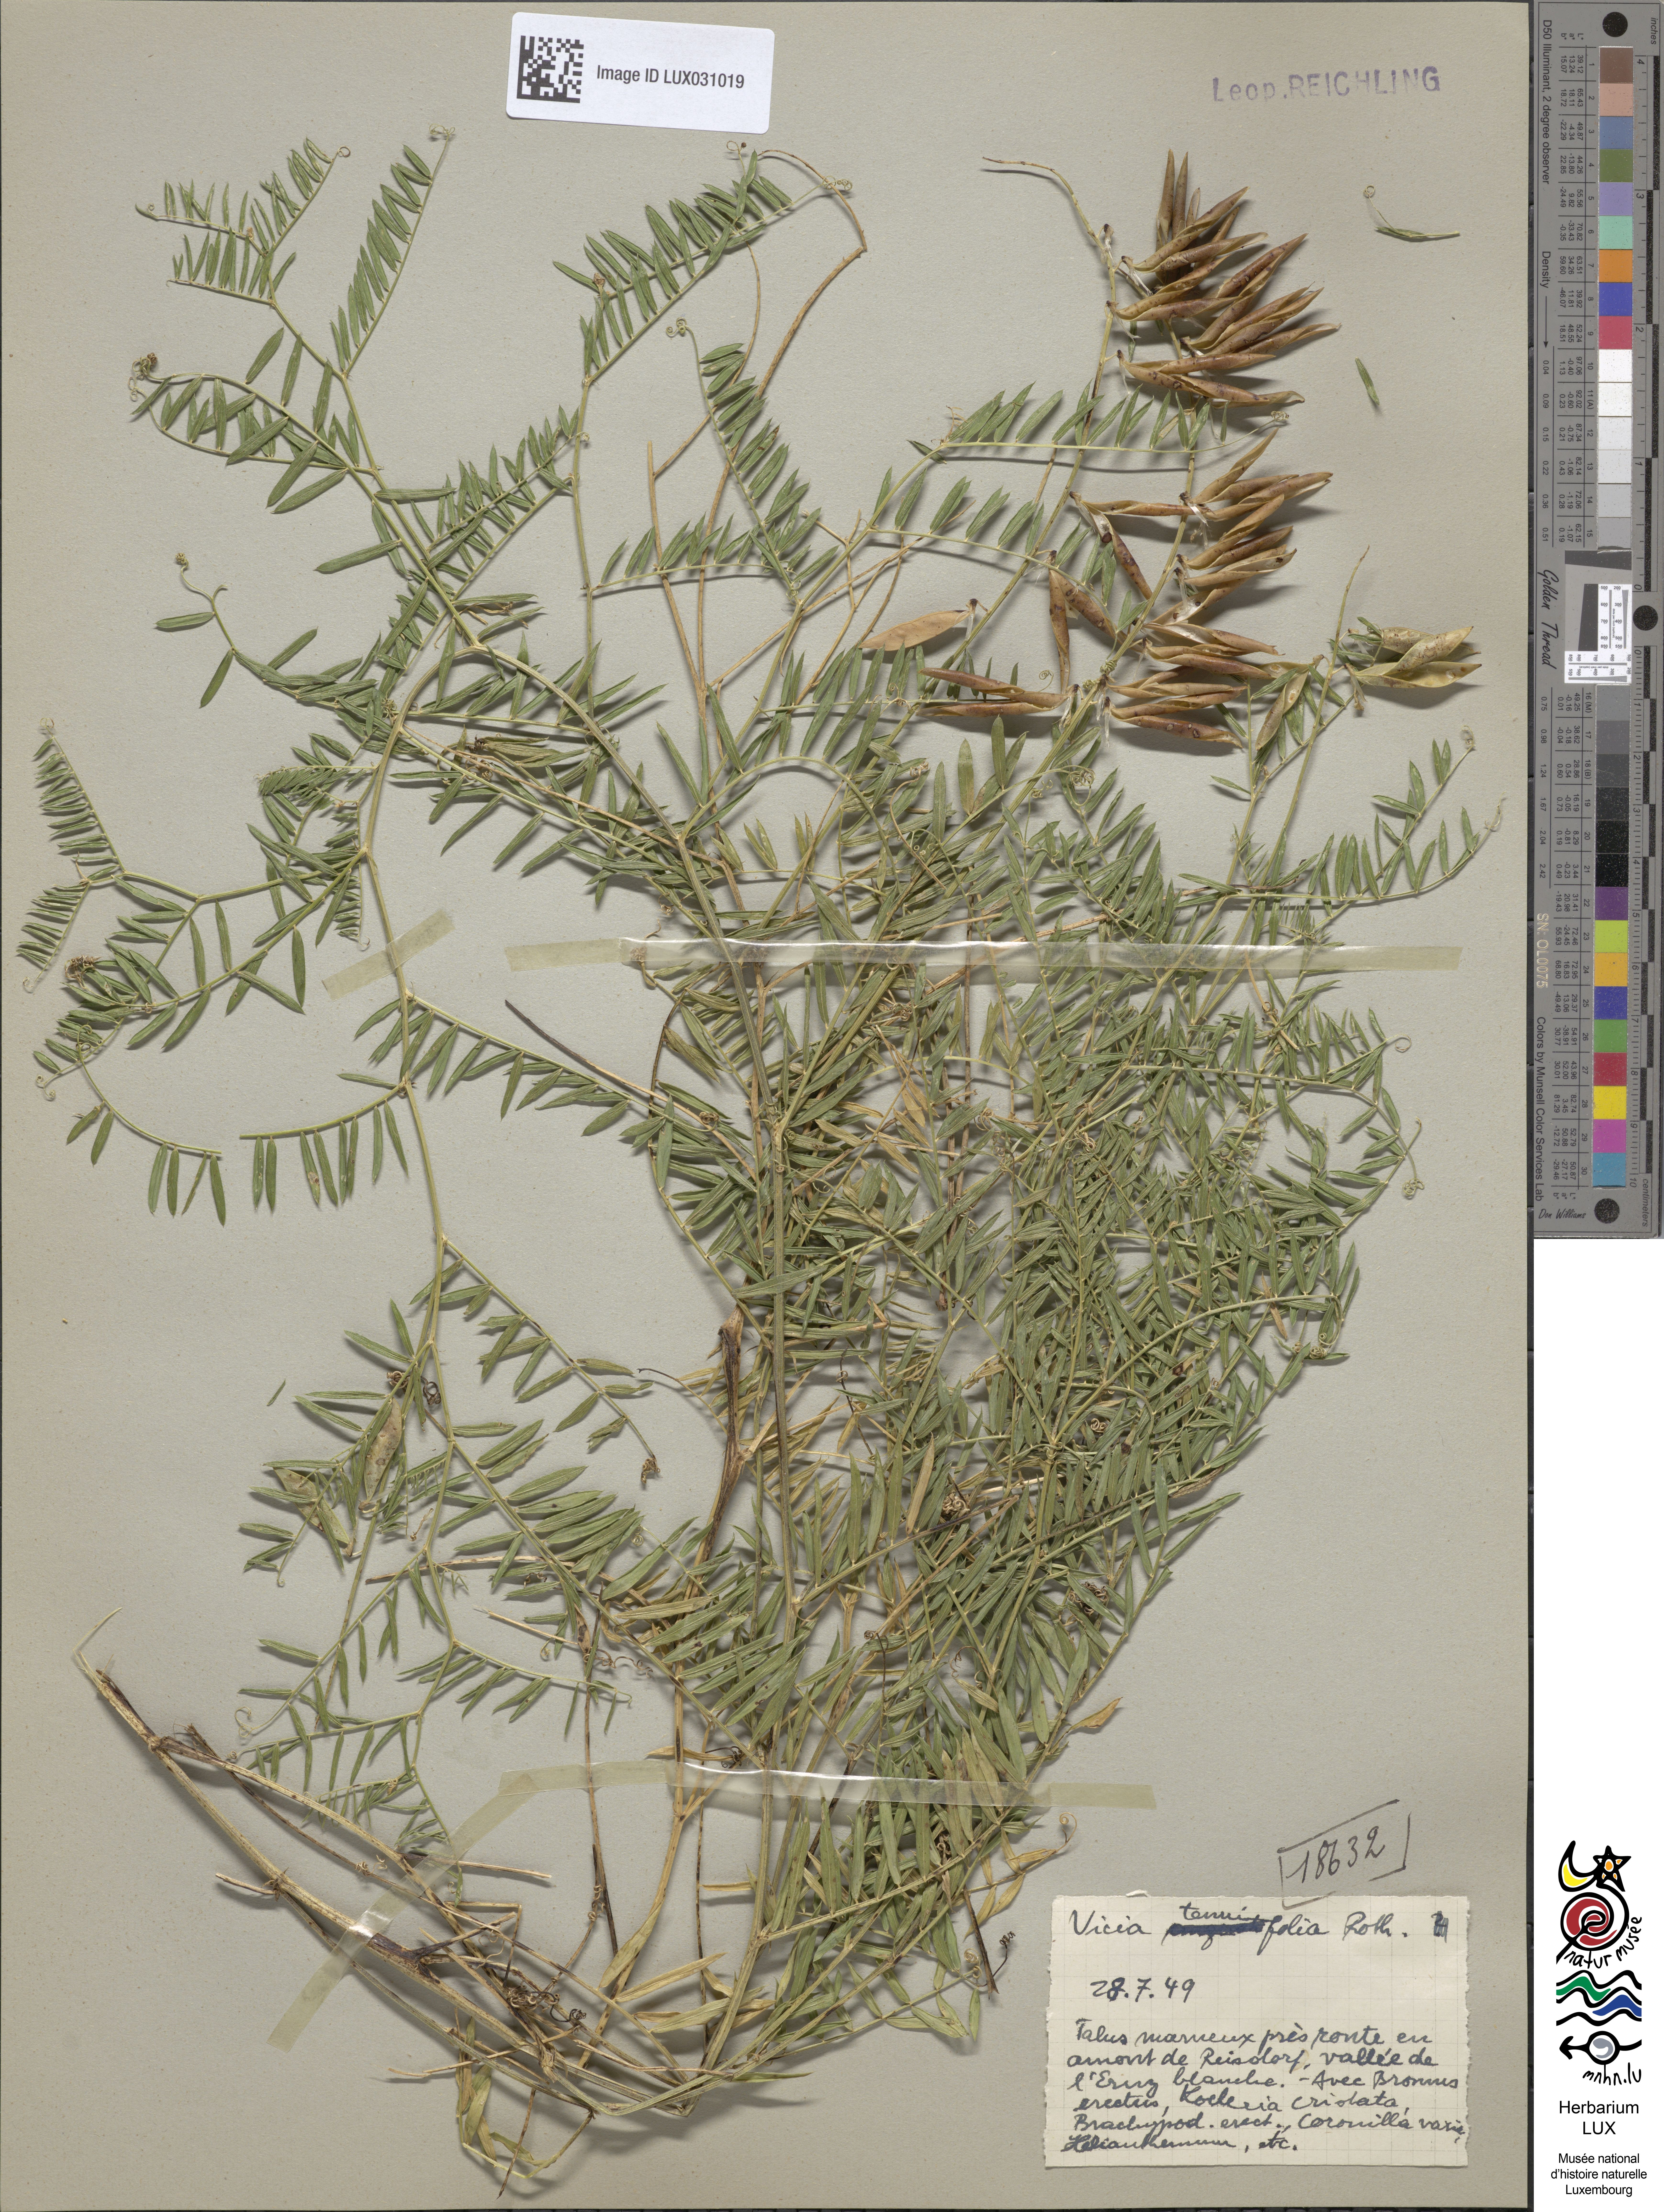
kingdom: Plantae
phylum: Tracheophyta
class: Magnoliopsida
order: Fabales
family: Fabaceae
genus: Vicia
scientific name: Vicia tenuifolia
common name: Fine-leaved vetch
